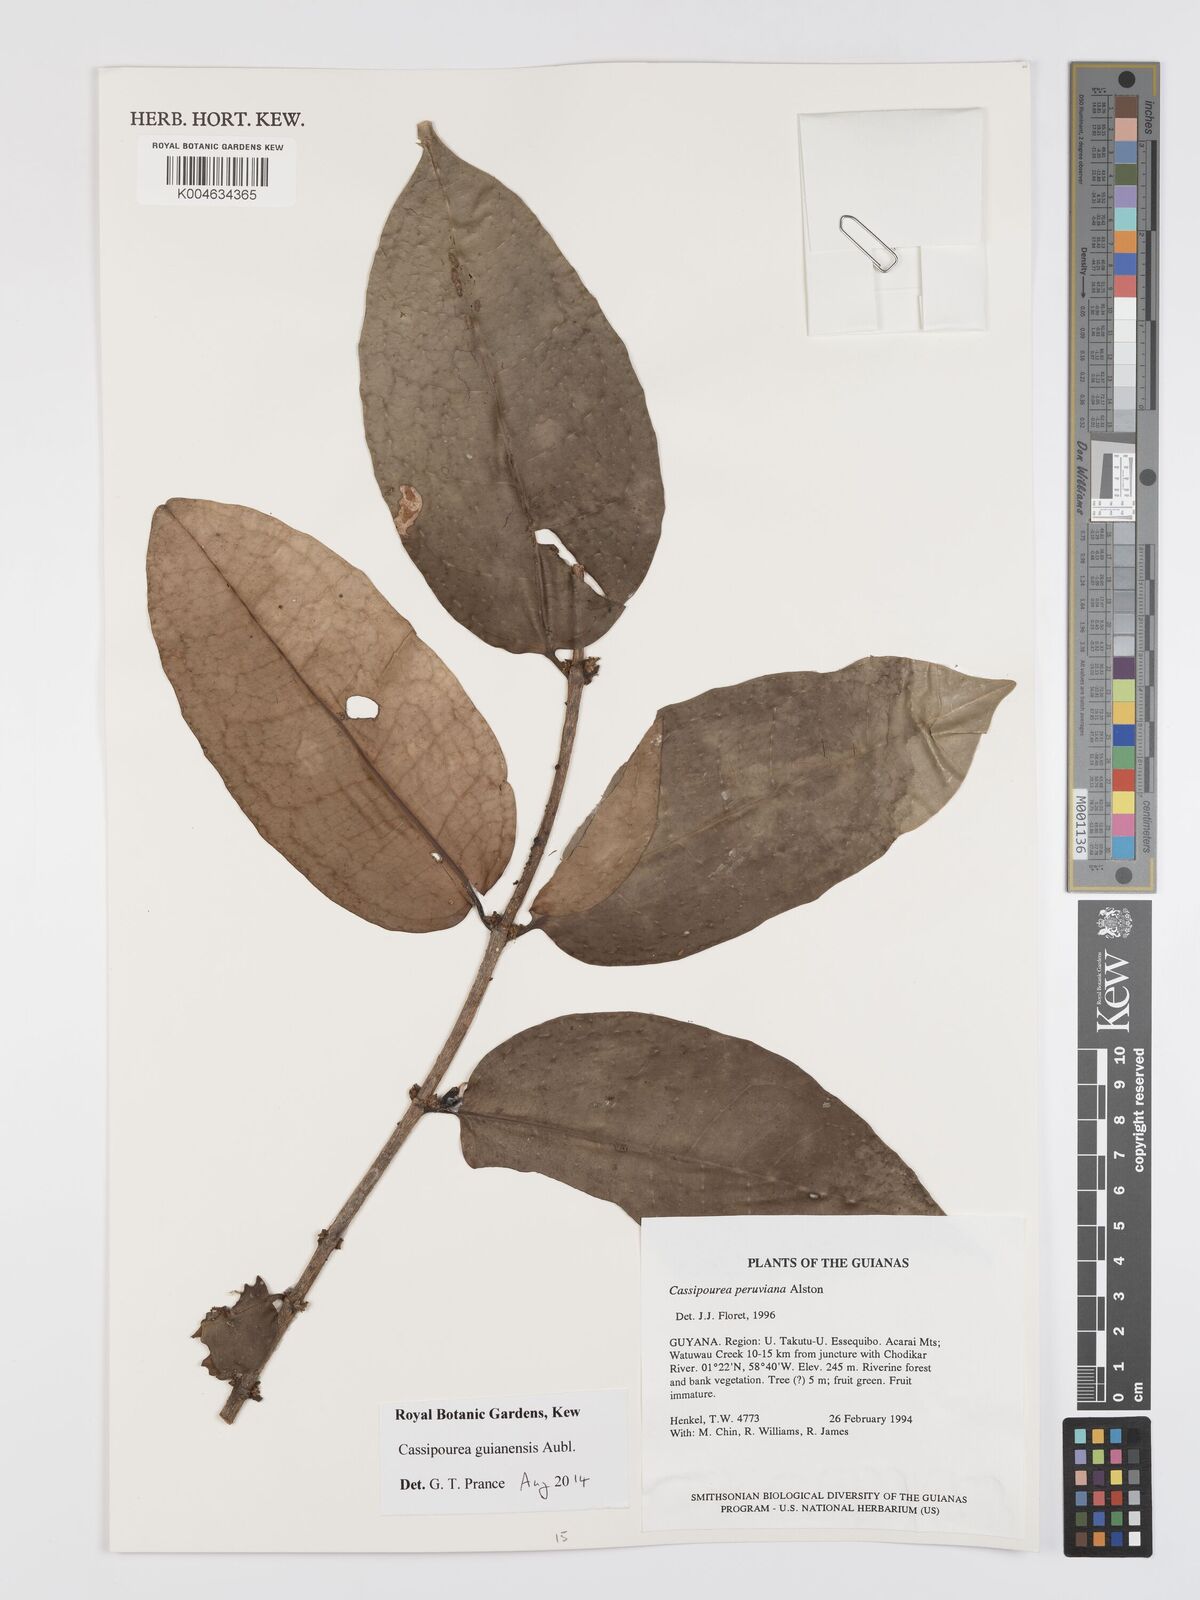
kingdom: Plantae
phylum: Tracheophyta
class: Magnoliopsida
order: Malpighiales
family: Rhizophoraceae
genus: Cassipourea
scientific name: Cassipourea guianensis
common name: Bastard waterwood
